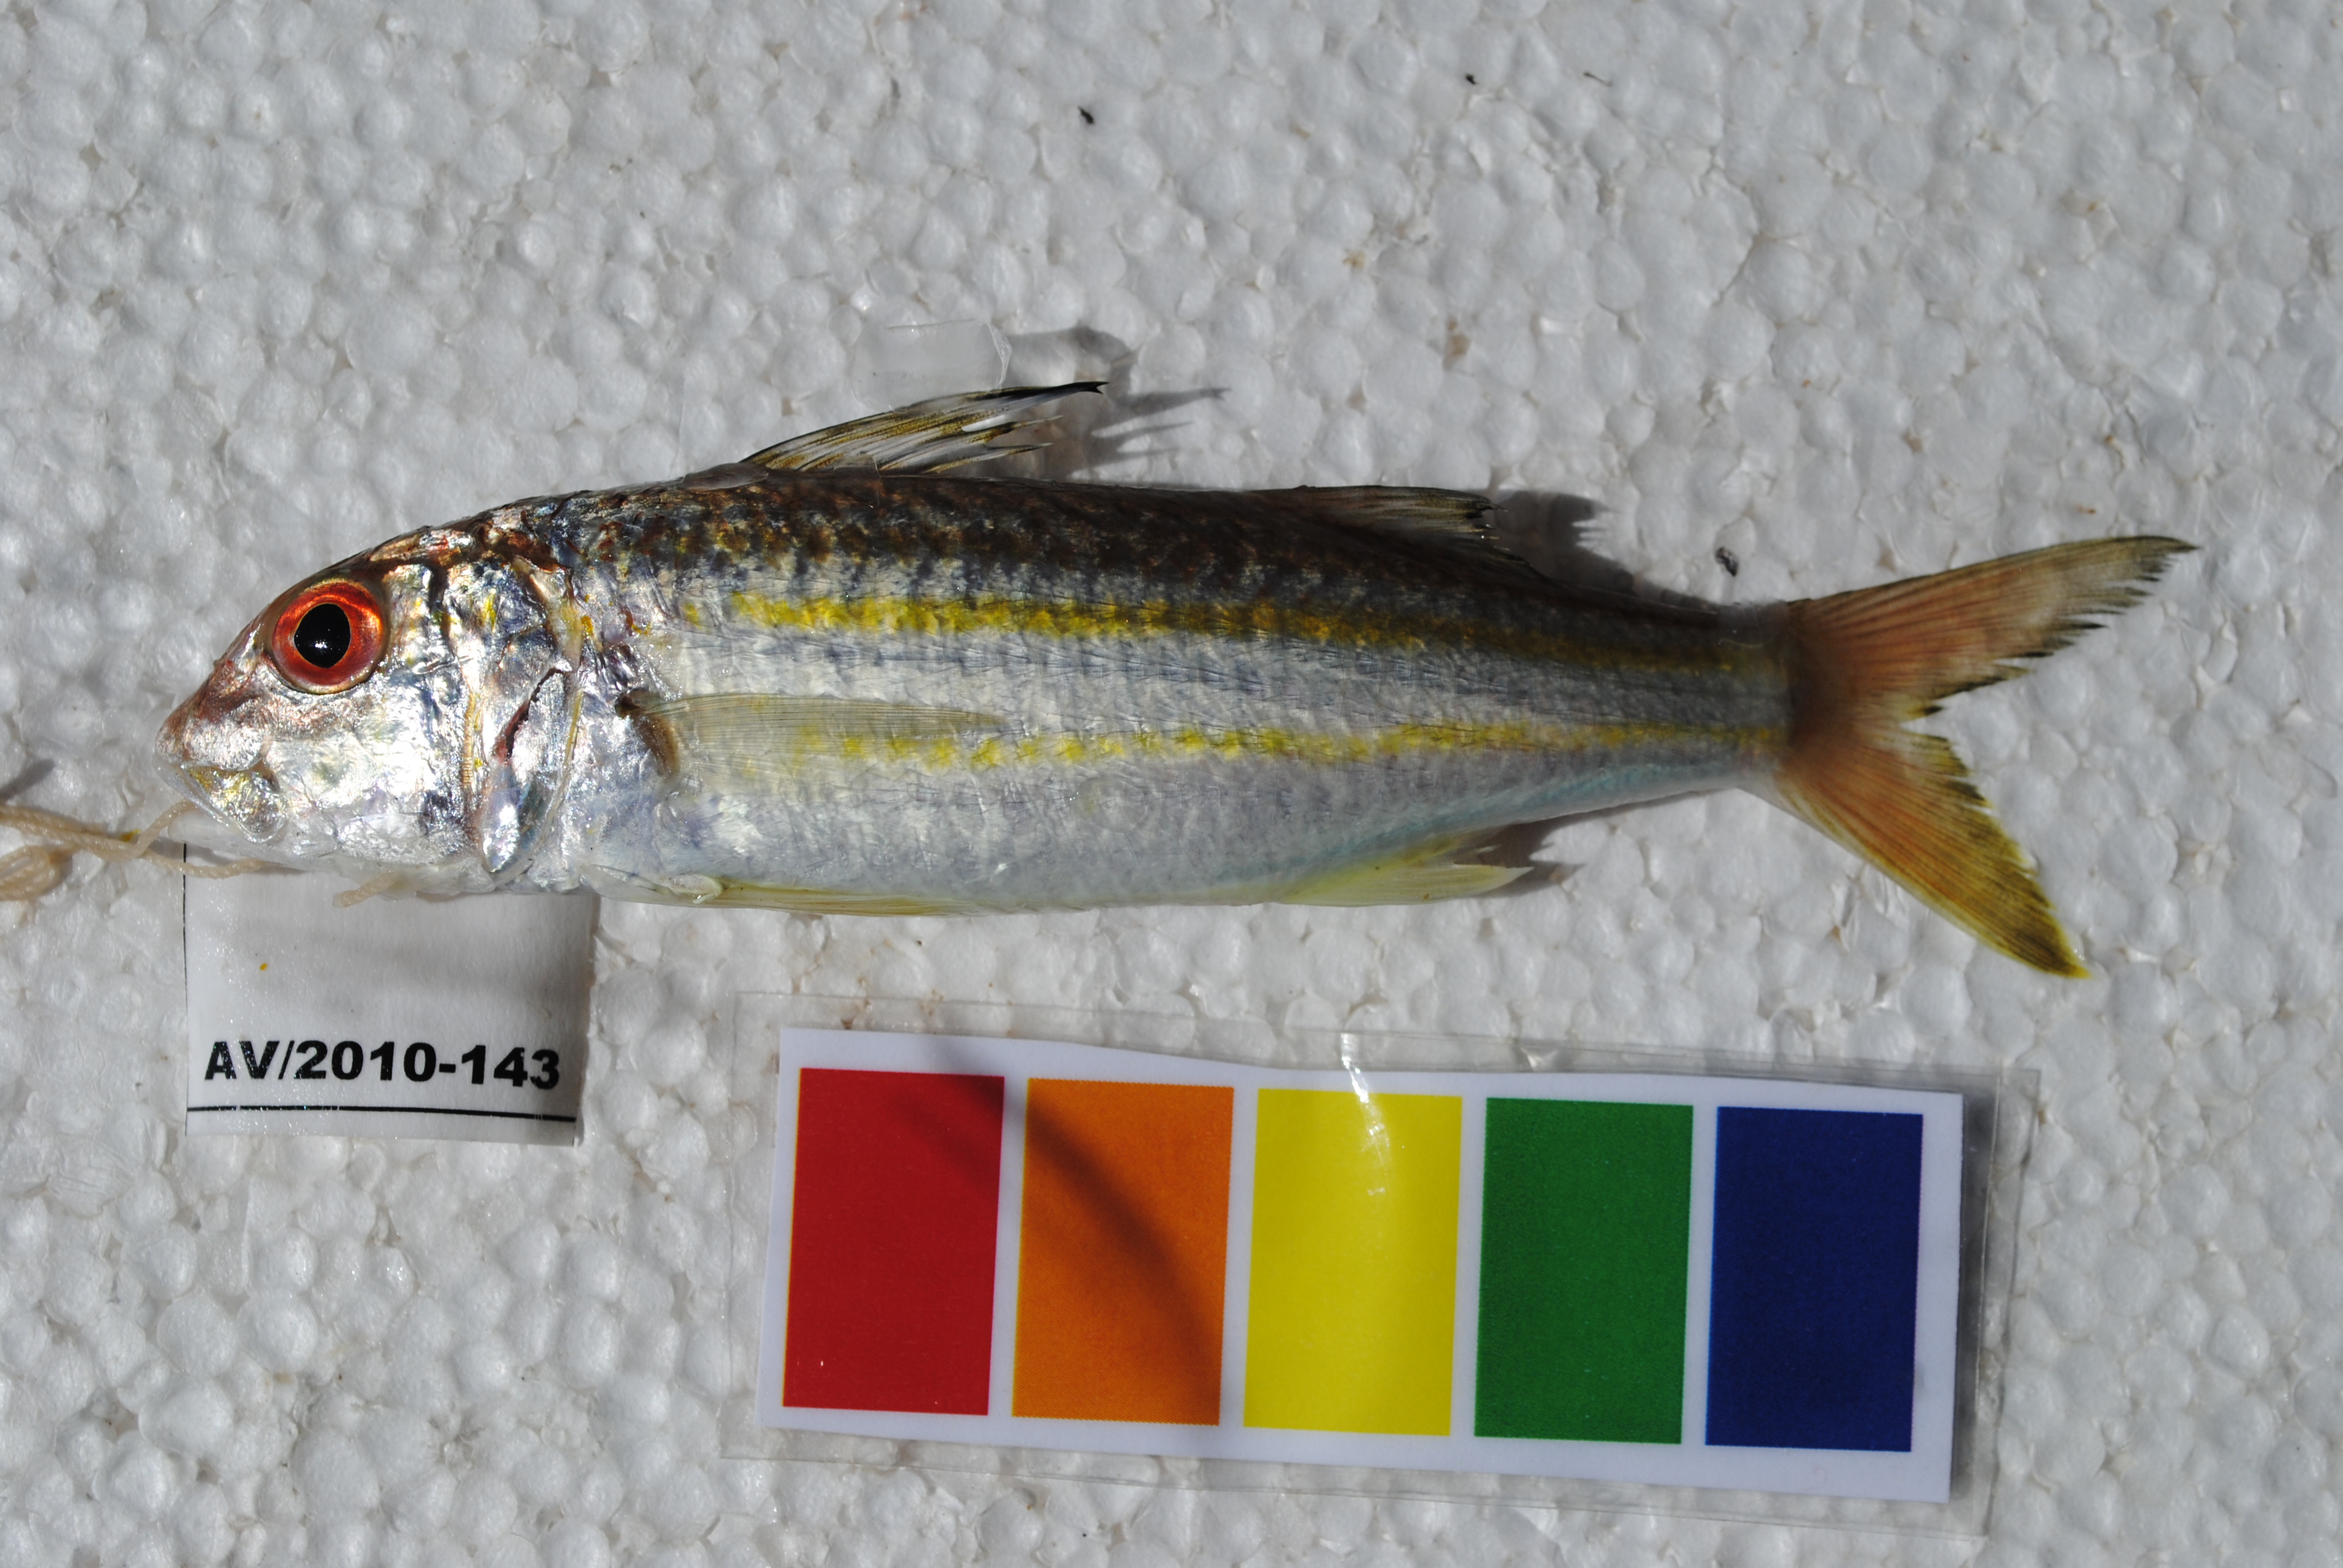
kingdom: Animalia
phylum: Chordata
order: Perciformes
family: Mullidae
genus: Upeneus
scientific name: Upeneus sulphureus
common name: Sulphur goatfish
